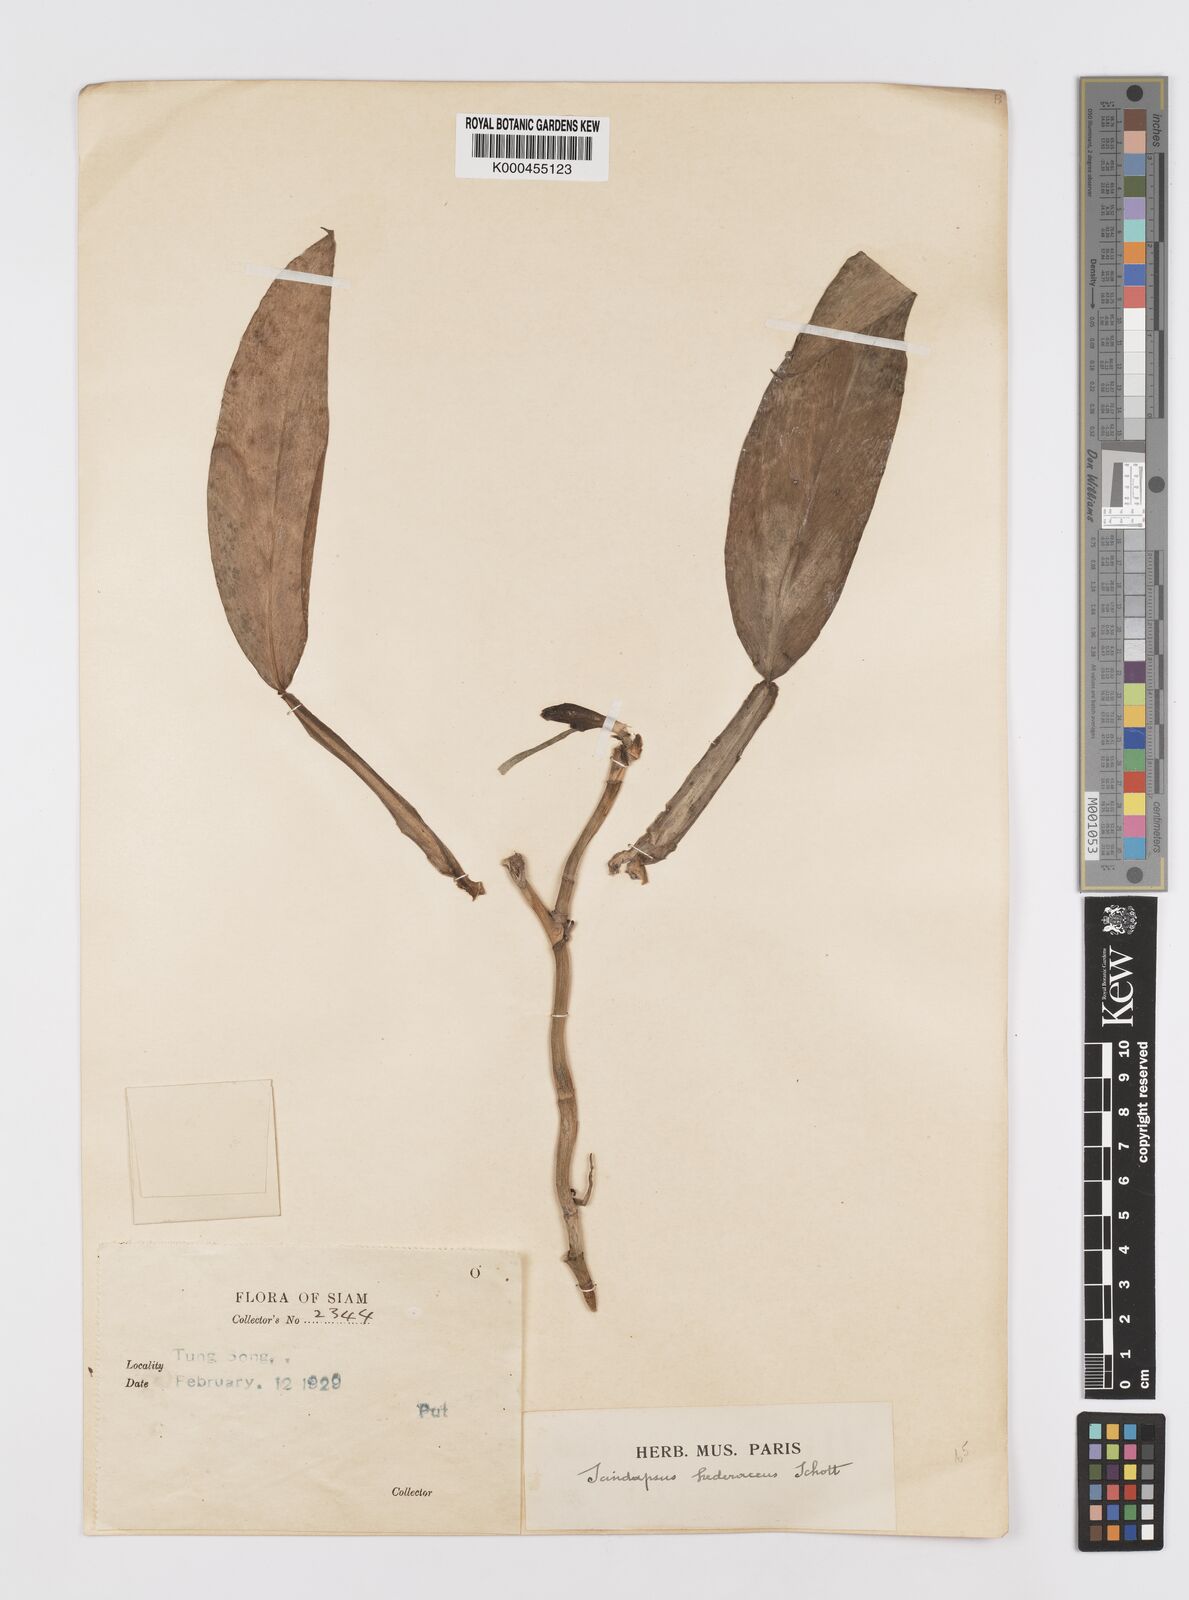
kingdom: Plantae
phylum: Tracheophyta
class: Liliopsida
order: Alismatales
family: Araceae
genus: Scindapsus
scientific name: Scindapsus hederaceus
